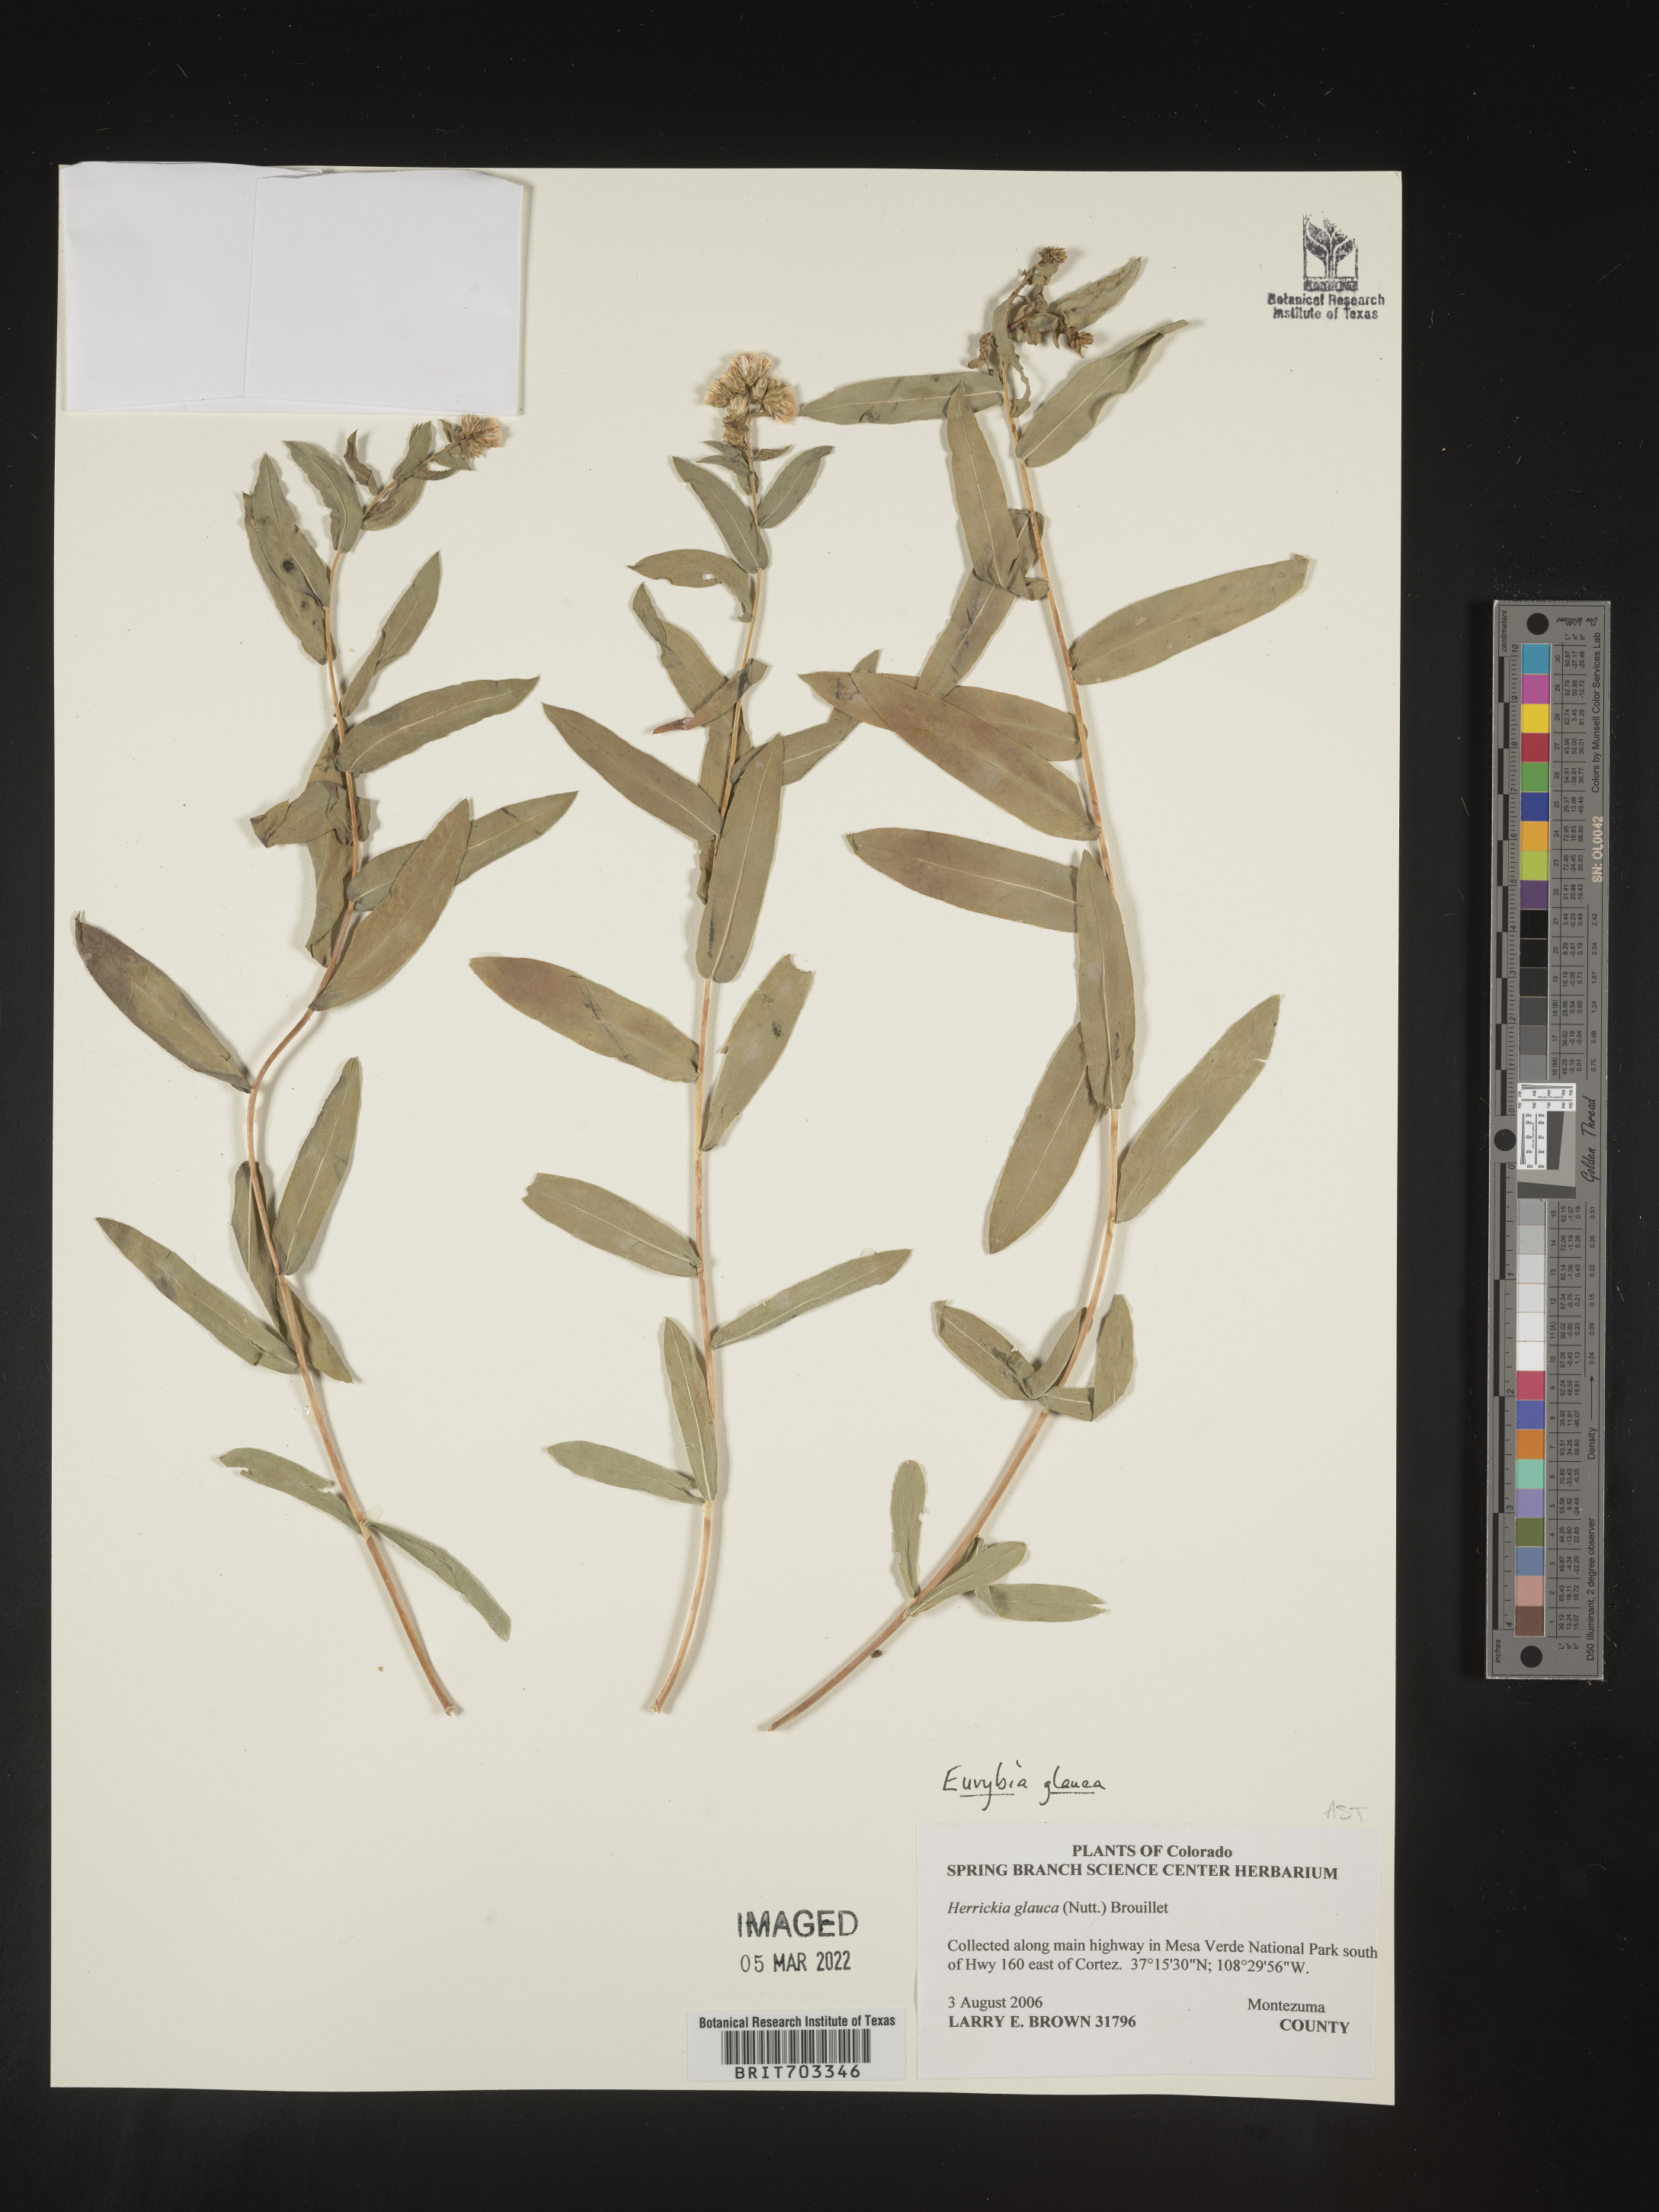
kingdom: Plantae
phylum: Tracheophyta
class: Magnoliopsida
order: Asterales
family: Asteraceae
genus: Eurybia
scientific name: Eurybia glauca
